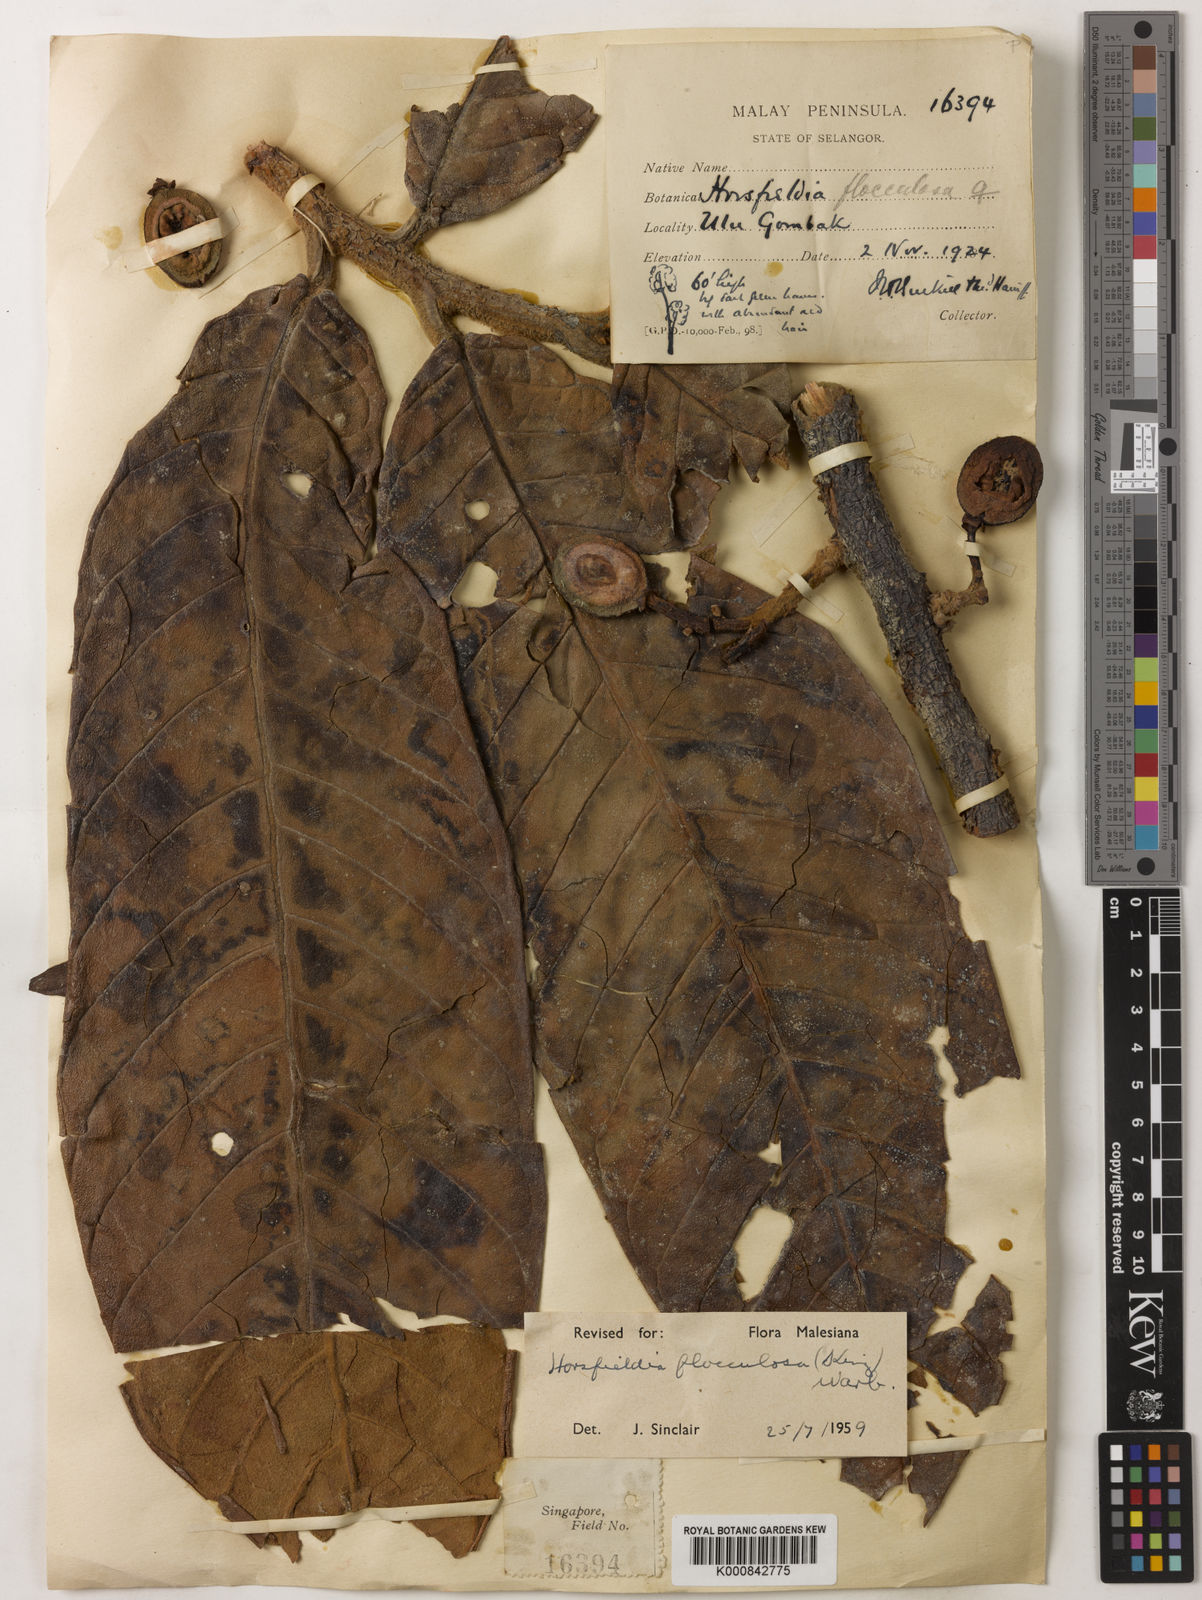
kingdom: Plantae
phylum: Tracheophyta
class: Magnoliopsida
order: Magnoliales
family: Myristicaceae
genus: Horsfieldia
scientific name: Horsfieldia flocculosa
